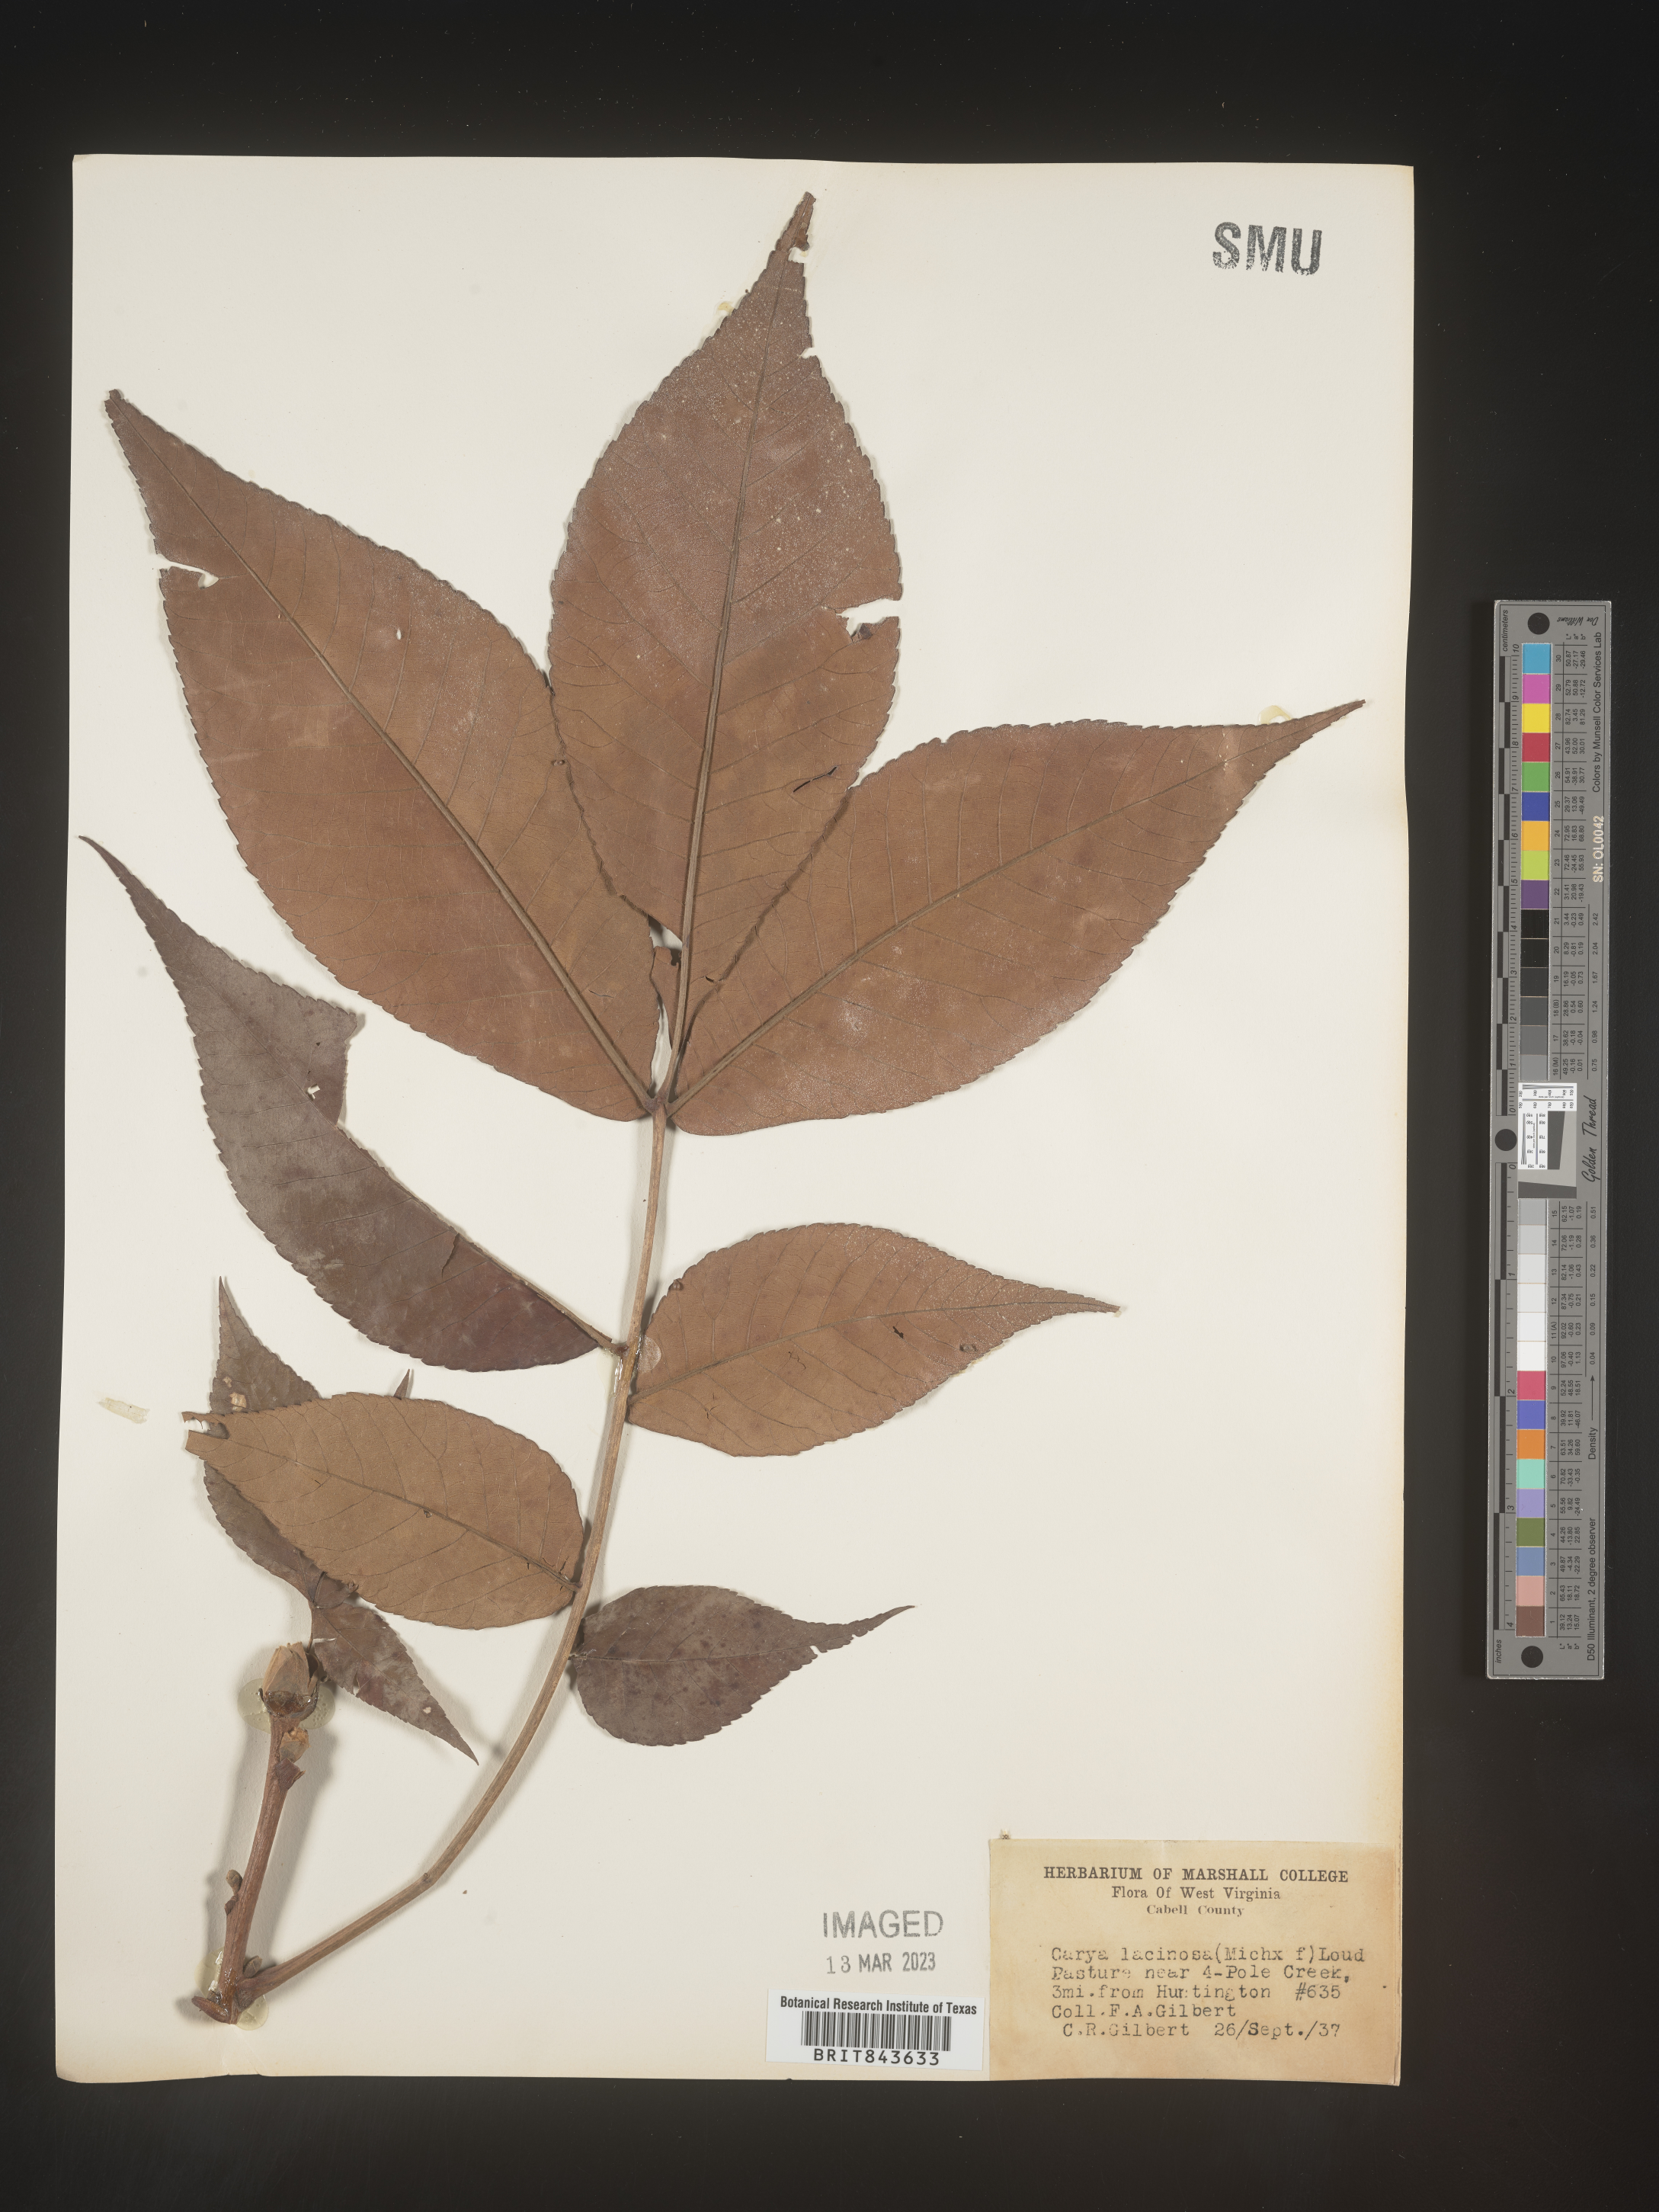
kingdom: Plantae
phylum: Tracheophyta
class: Magnoliopsida
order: Fagales
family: Juglandaceae
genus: Carya
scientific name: Carya laciniosa
